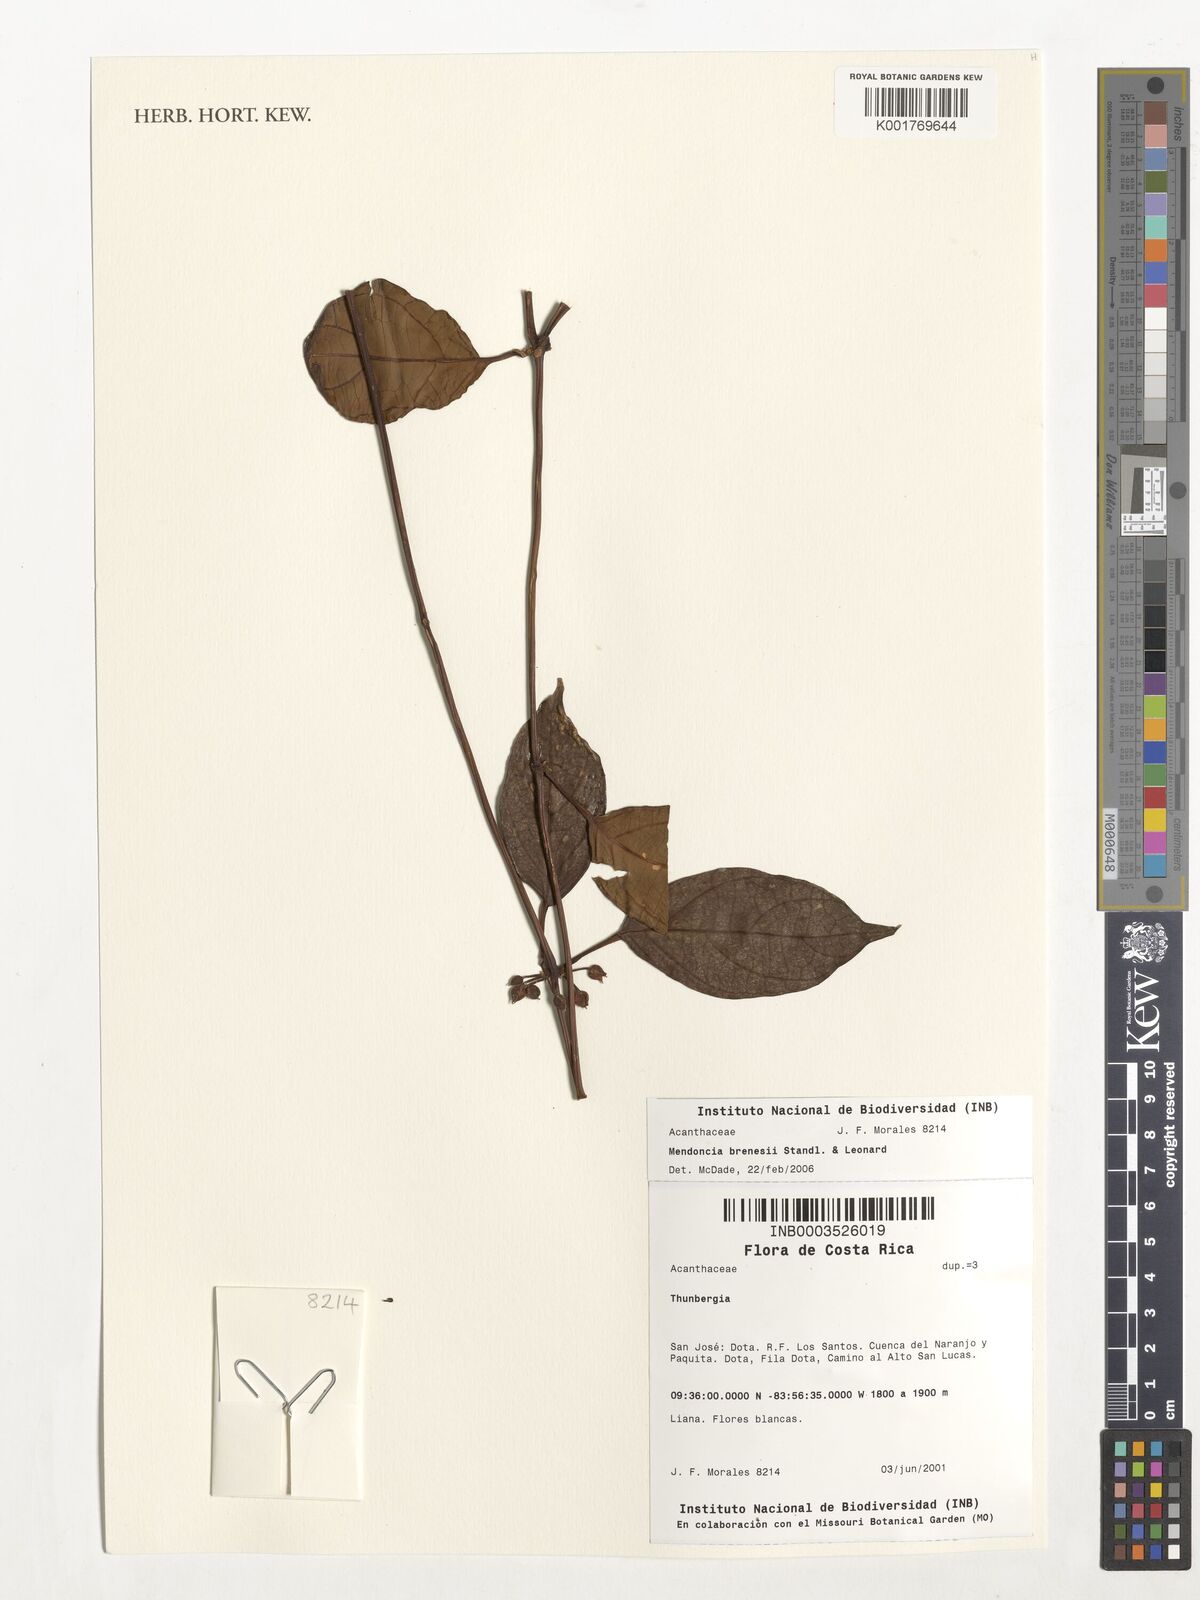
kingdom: Plantae
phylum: Tracheophyta
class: Magnoliopsida
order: Lamiales
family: Acanthaceae
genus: Mendoncia
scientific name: Mendoncia brenesii
